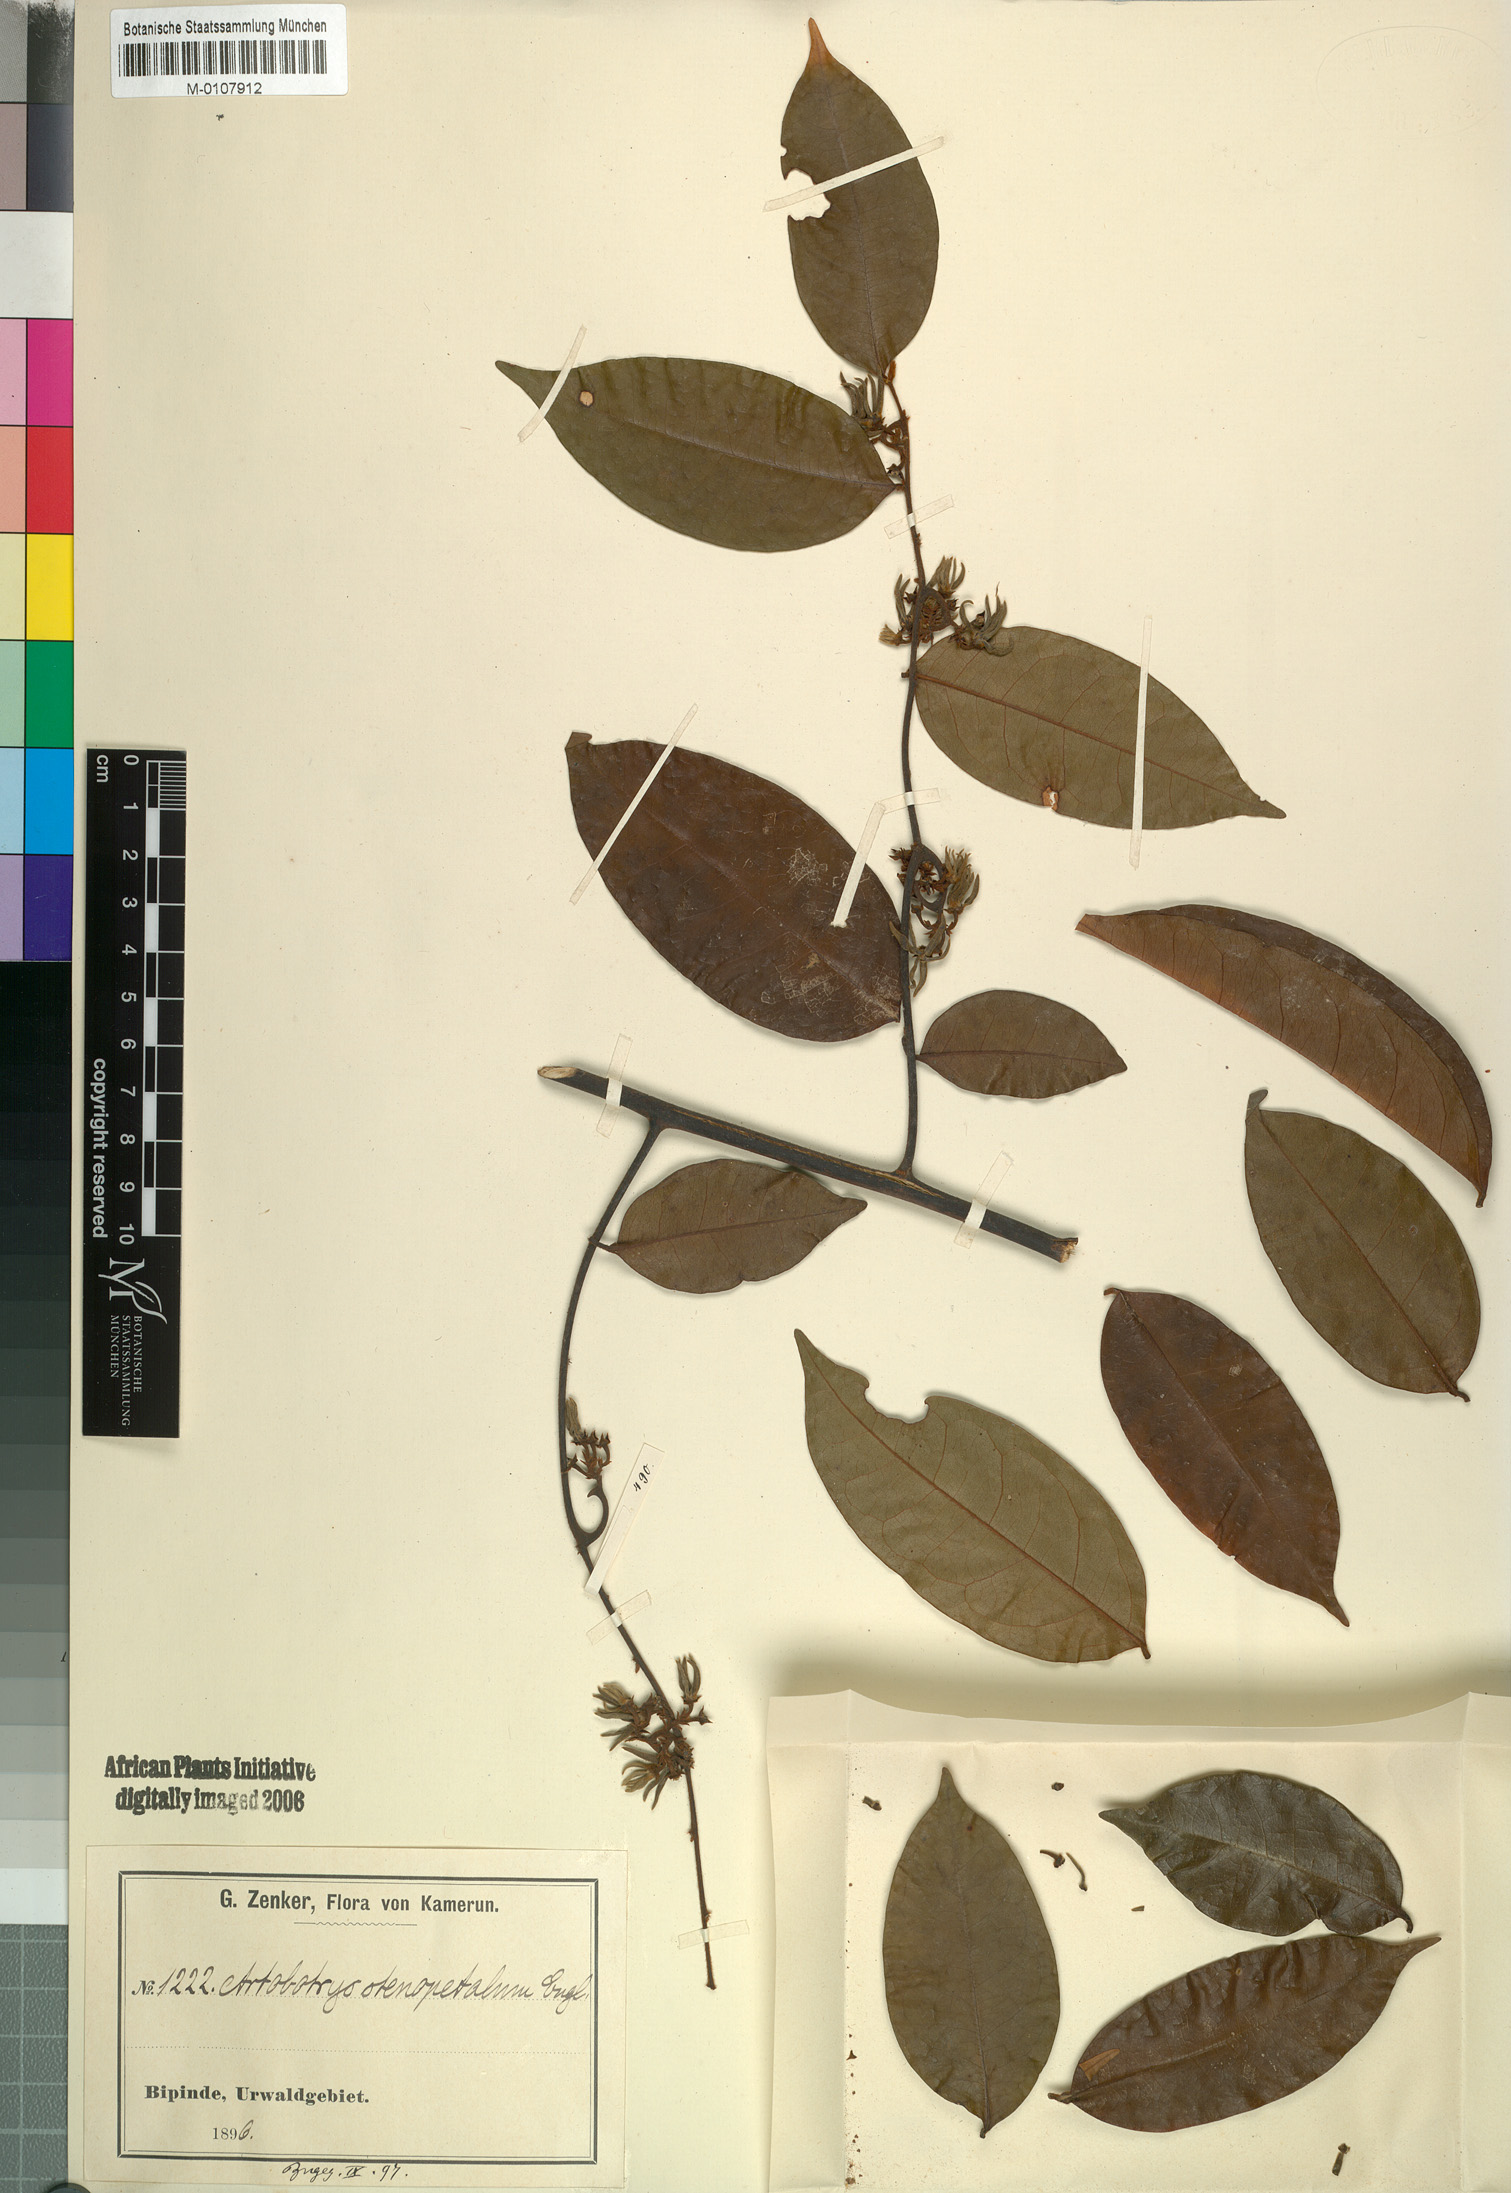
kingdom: Plantae
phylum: Tracheophyta
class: Magnoliopsida
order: Magnoliales
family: Annonaceae
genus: Artabotrys
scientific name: Artabotrys stenopetalus
